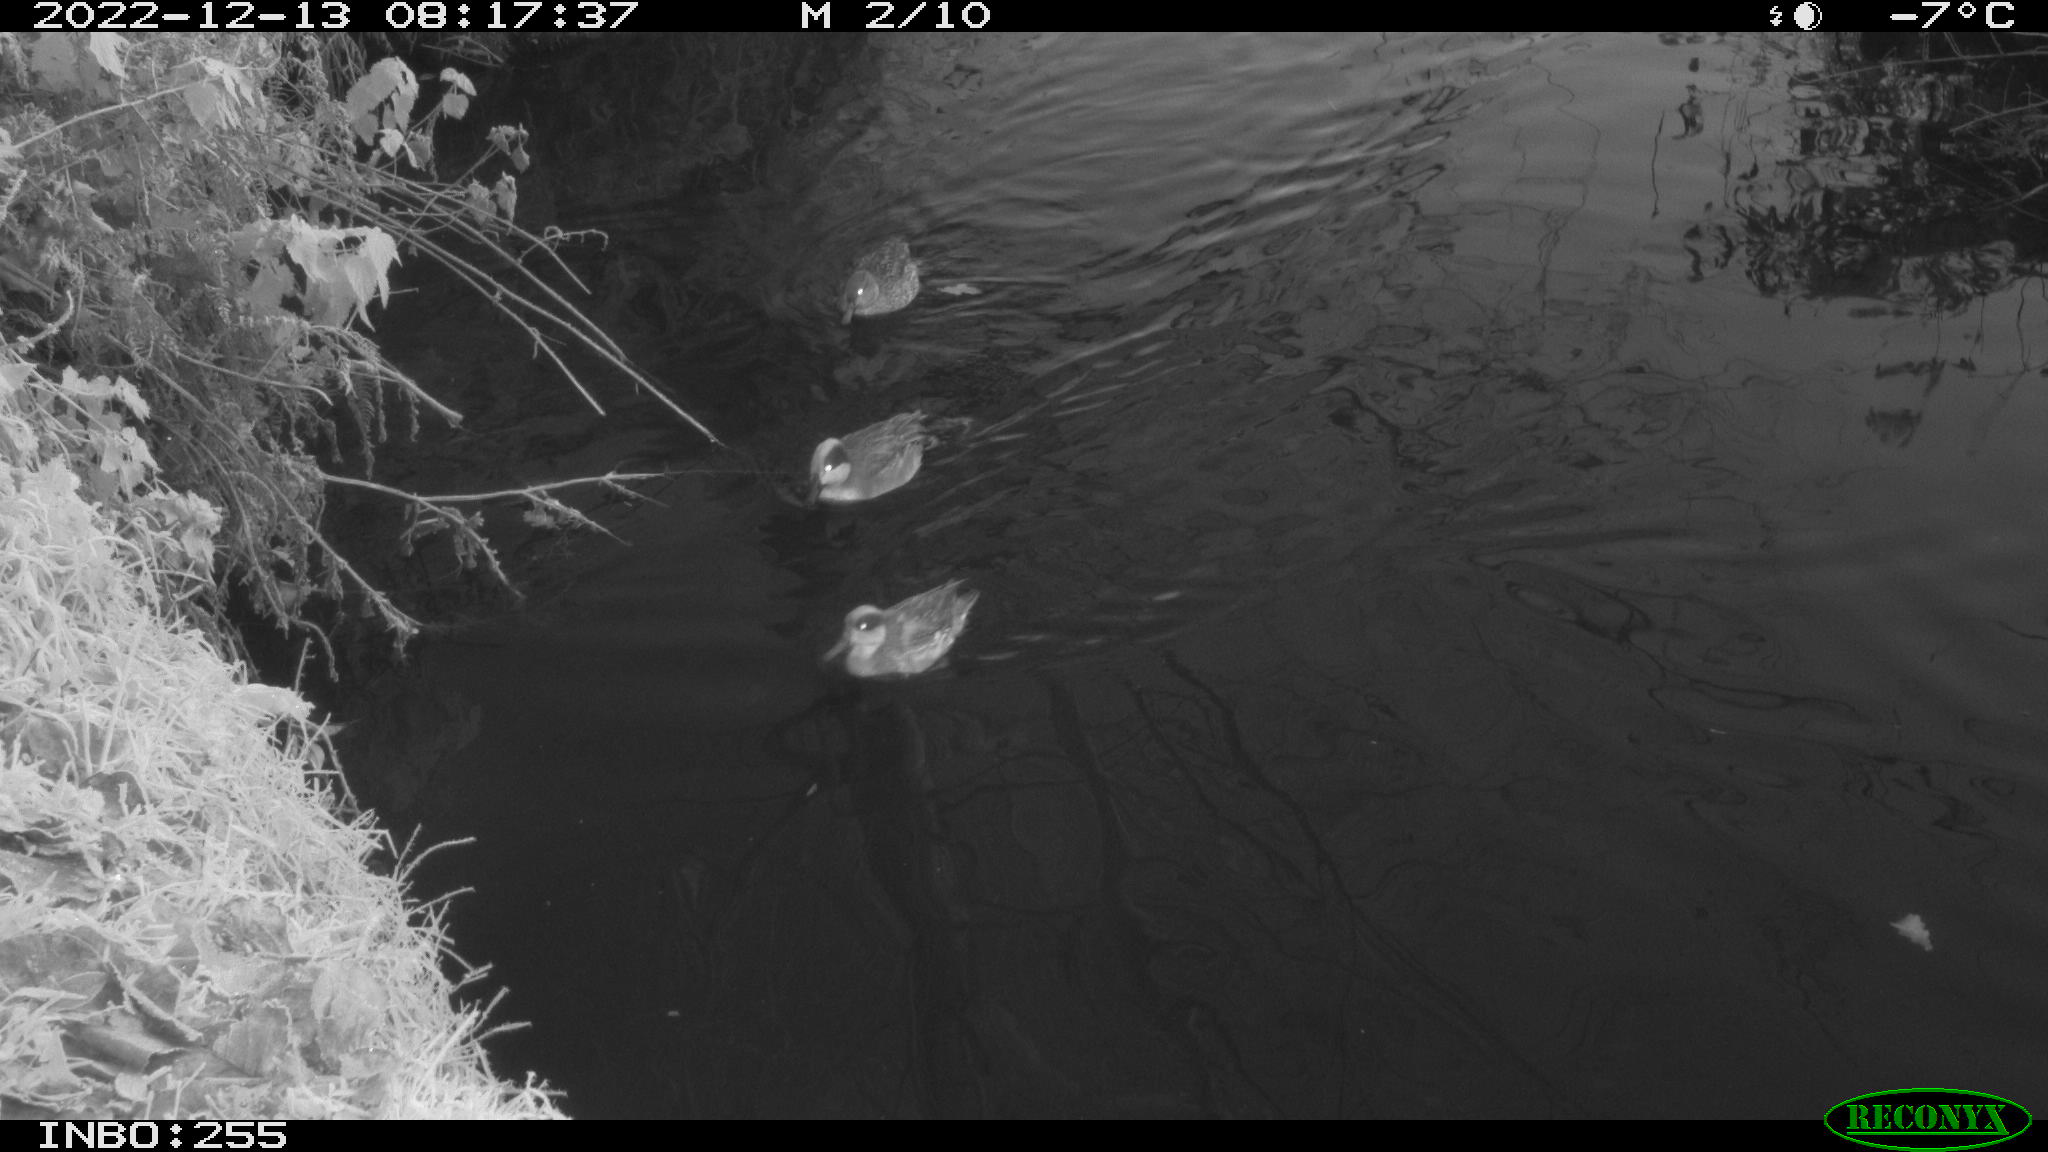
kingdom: Animalia
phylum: Chordata
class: Aves
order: Anseriformes
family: Anatidae
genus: Anas
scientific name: Anas
